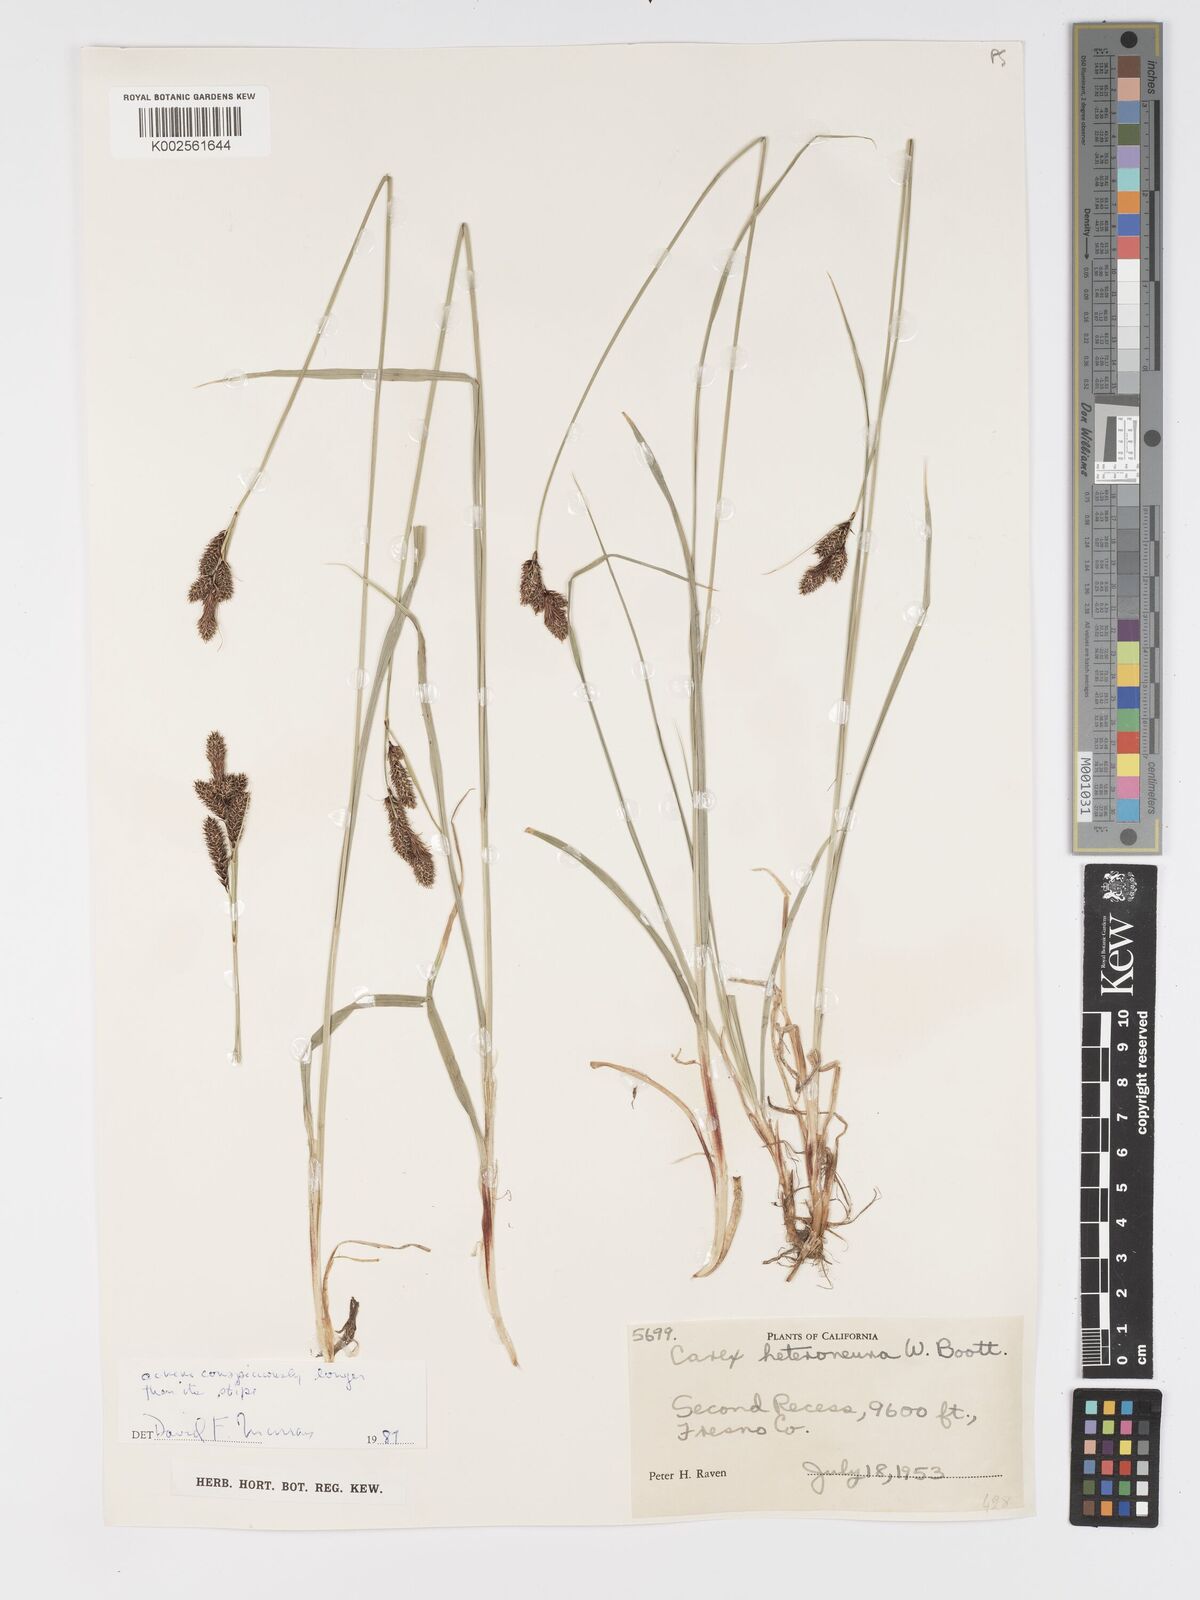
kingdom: Plantae
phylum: Tracheophyta
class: Liliopsida
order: Poales
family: Cyperaceae
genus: Carex
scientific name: Carex heteroneura
